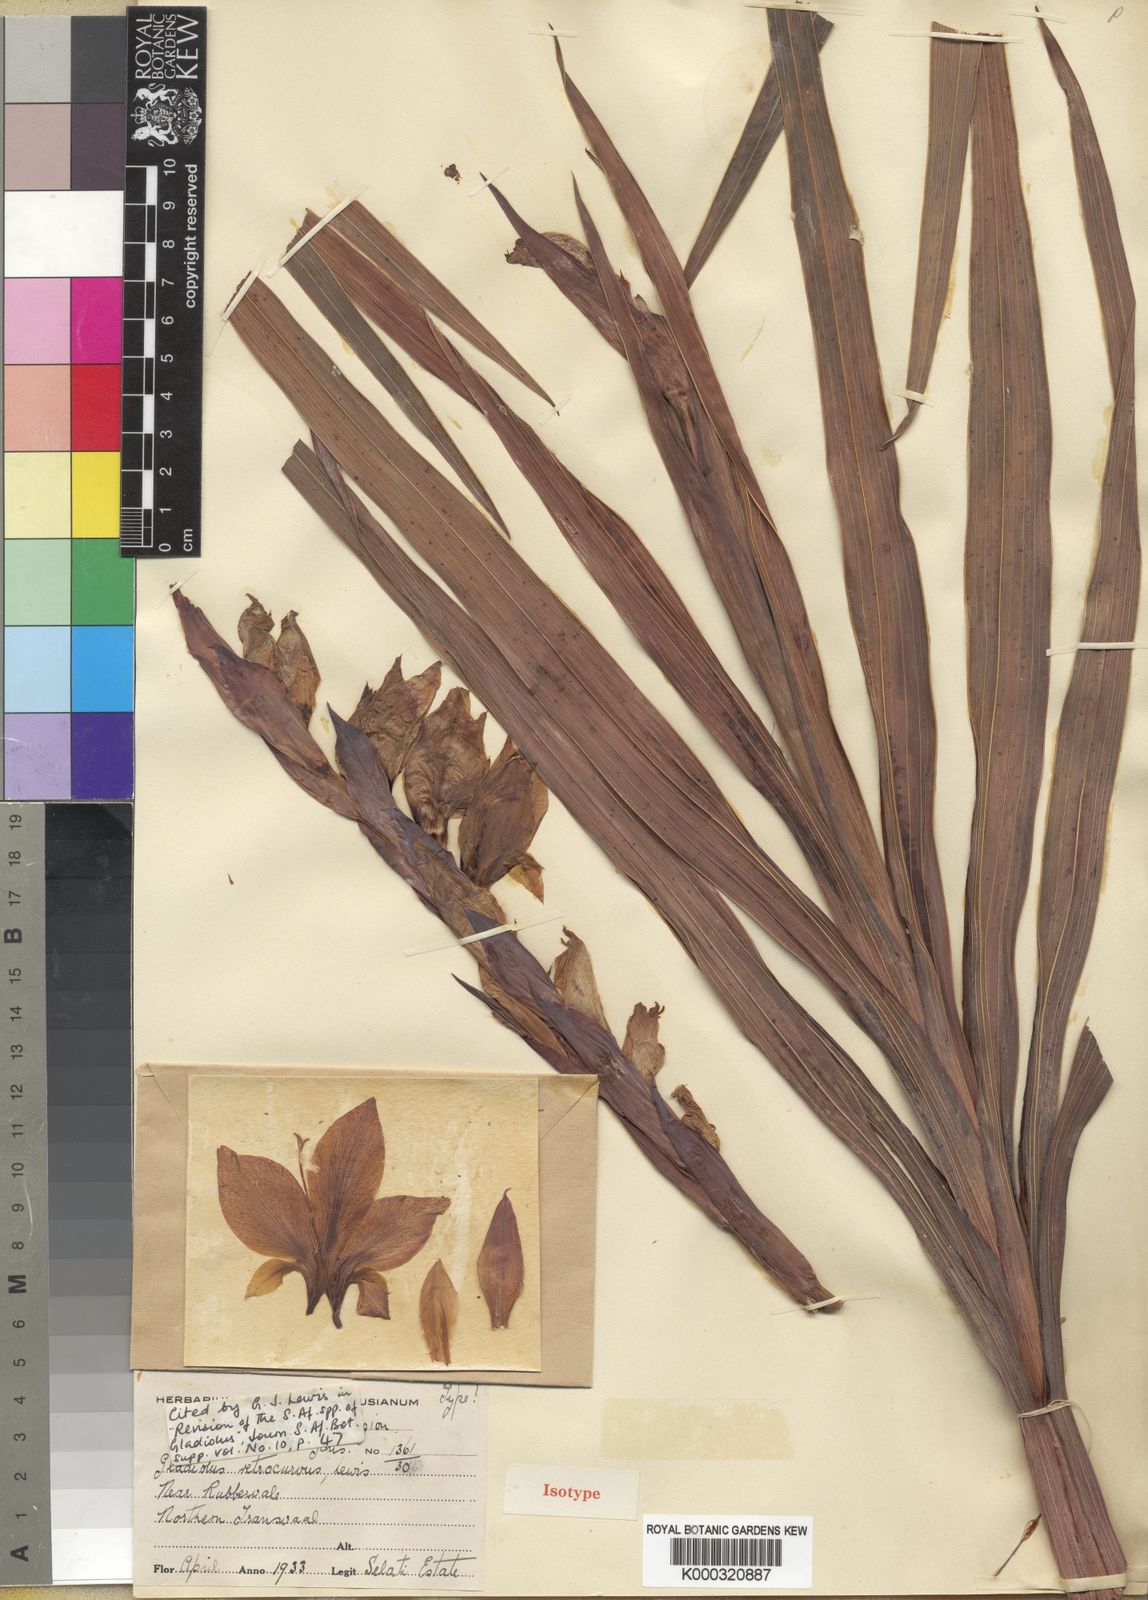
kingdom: Plantae
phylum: Tracheophyta
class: Liliopsida
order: Asparagales
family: Iridaceae
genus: Gladiolus
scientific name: Gladiolus dalenii
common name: Cornflag
